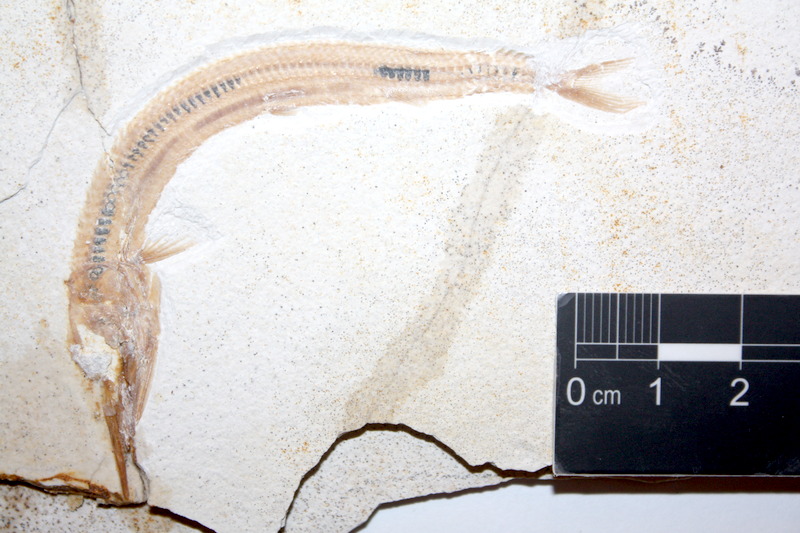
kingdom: Animalia
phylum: Chordata
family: Aspidorhynchidae
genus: Belonostomus
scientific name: Belonostomus kochii
